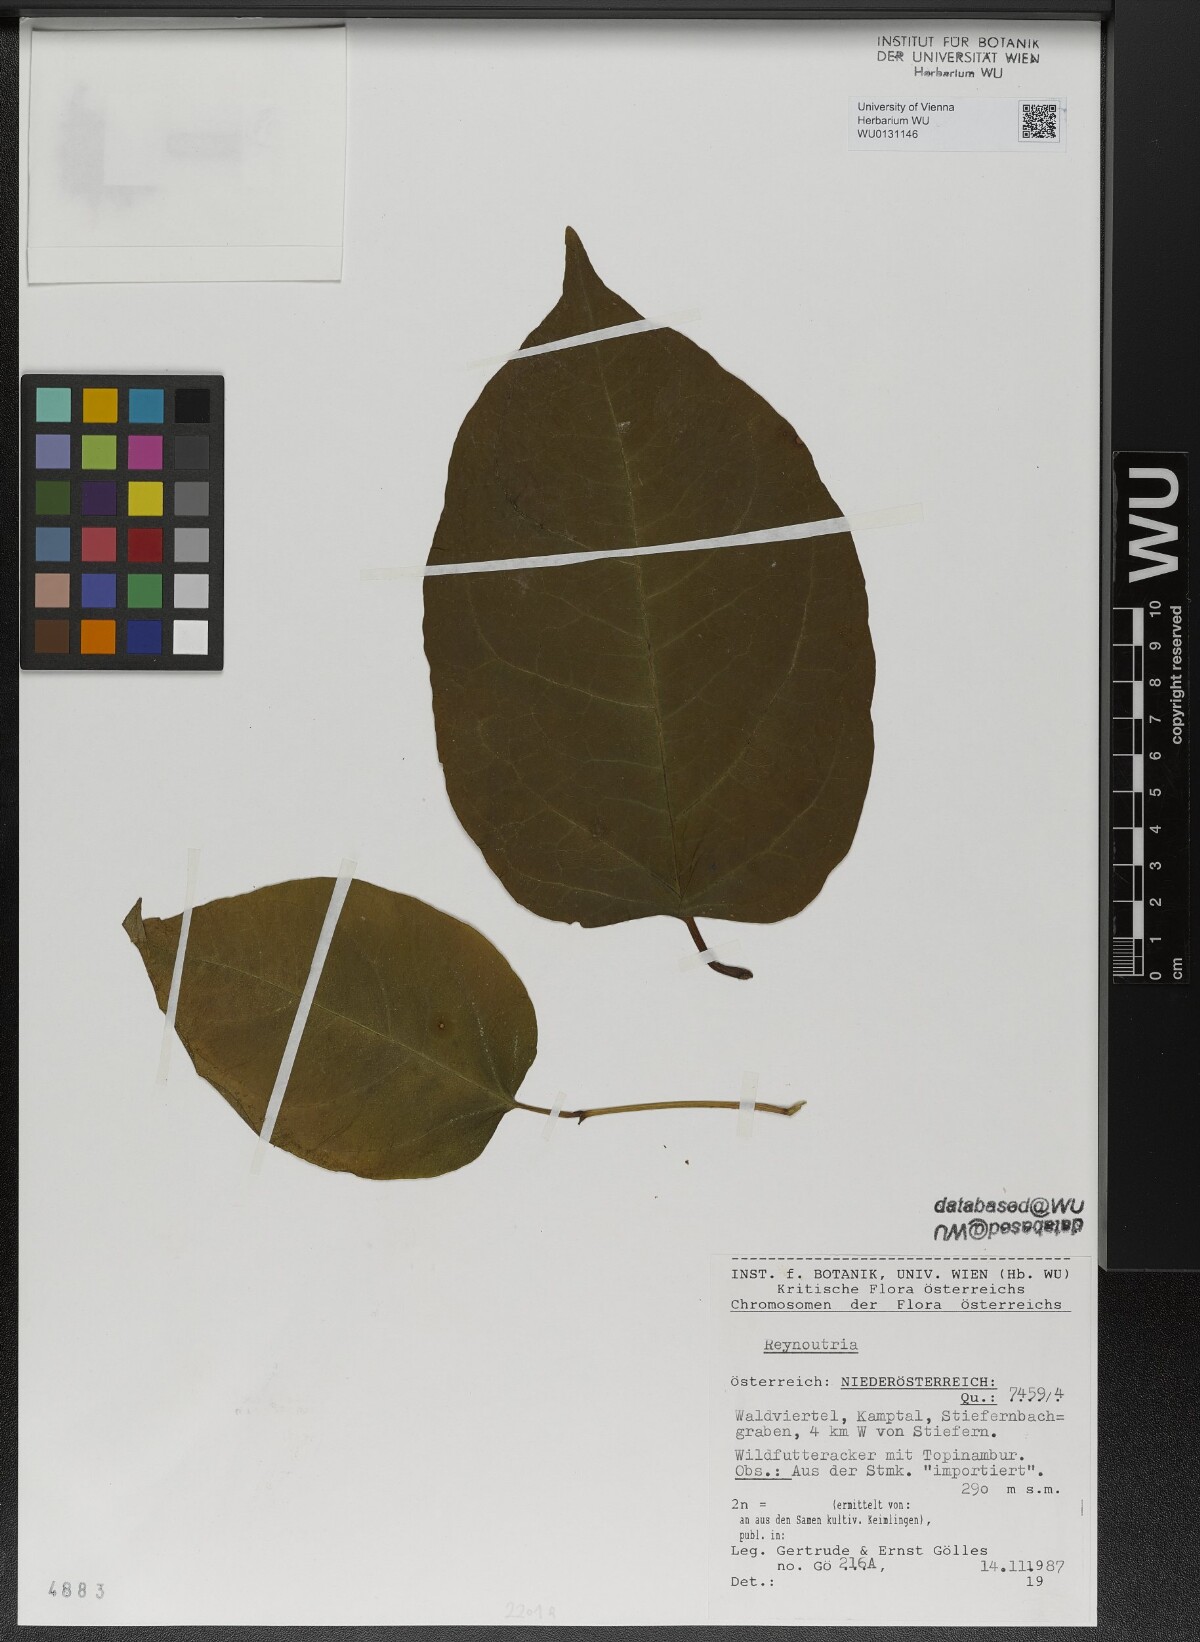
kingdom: Plantae
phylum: Tracheophyta
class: Magnoliopsida
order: Caryophyllales
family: Polygonaceae
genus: Reynoutria
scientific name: Reynoutria
